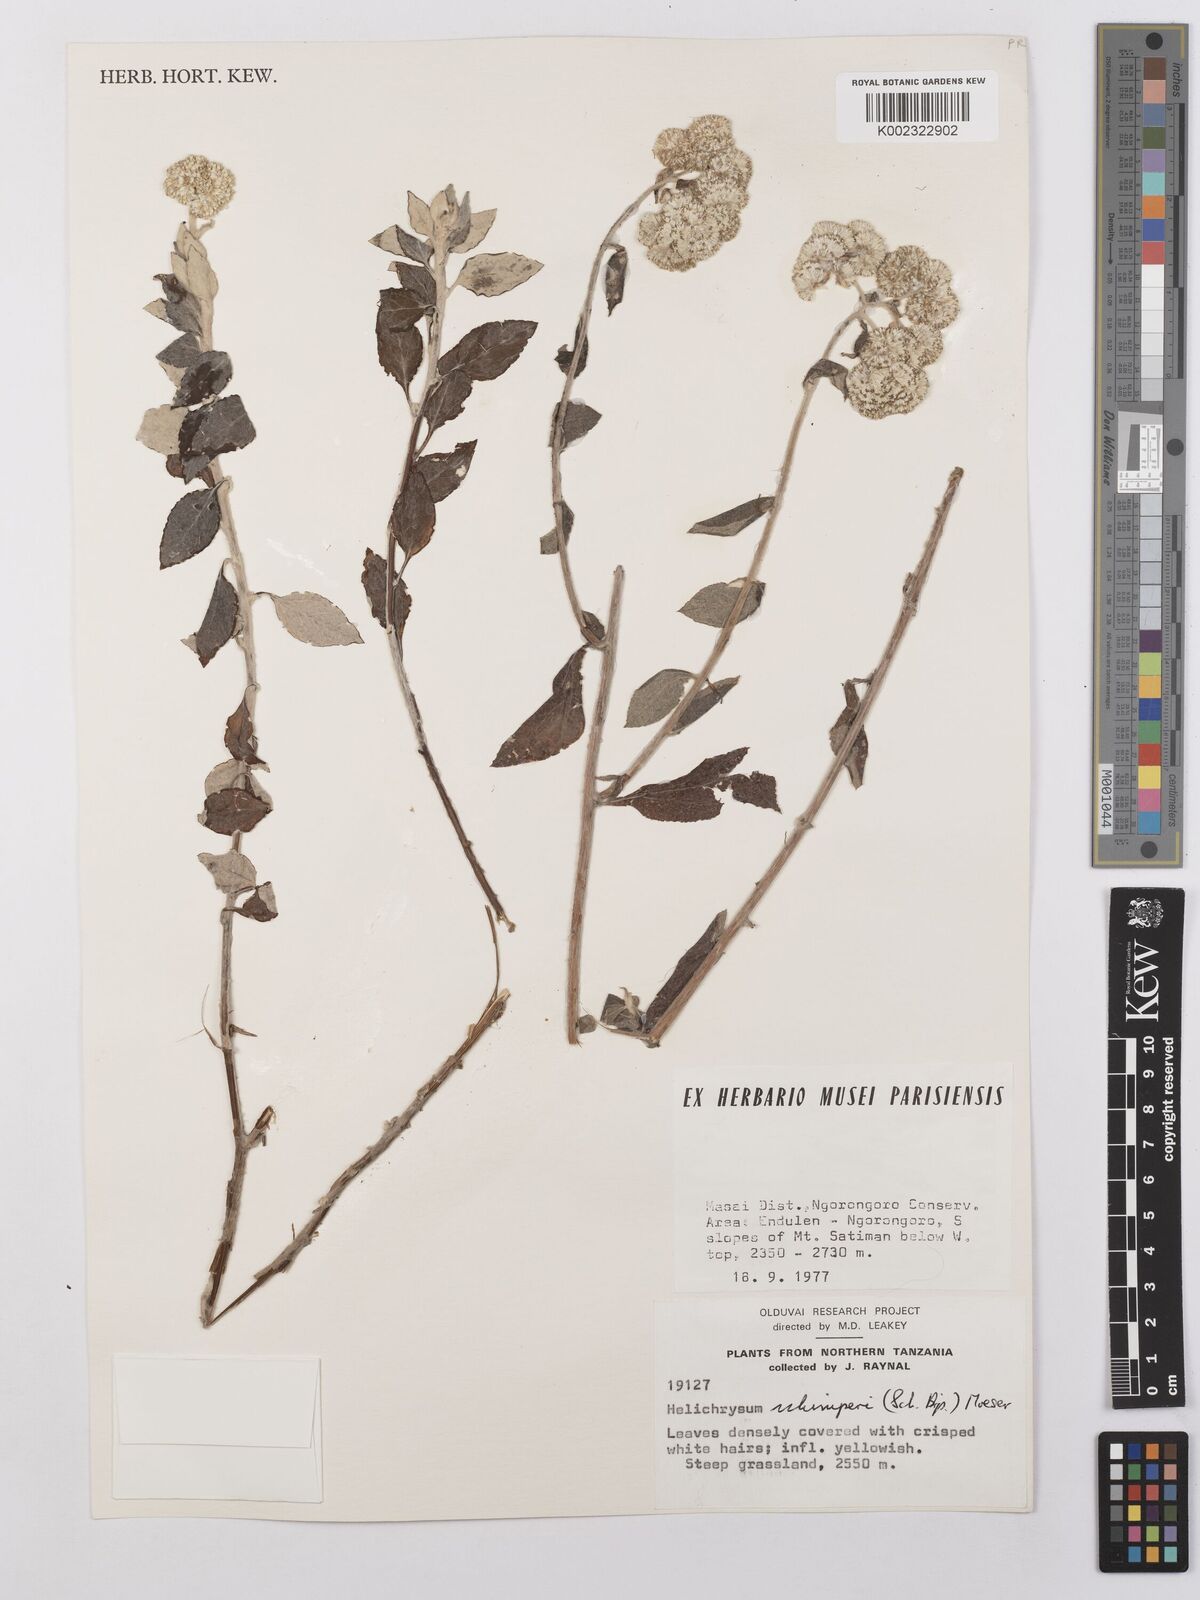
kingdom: Plantae
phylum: Tracheophyta
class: Magnoliopsida
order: Asterales
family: Asteraceae
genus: Helichrysum
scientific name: Helichrysum schimperi
